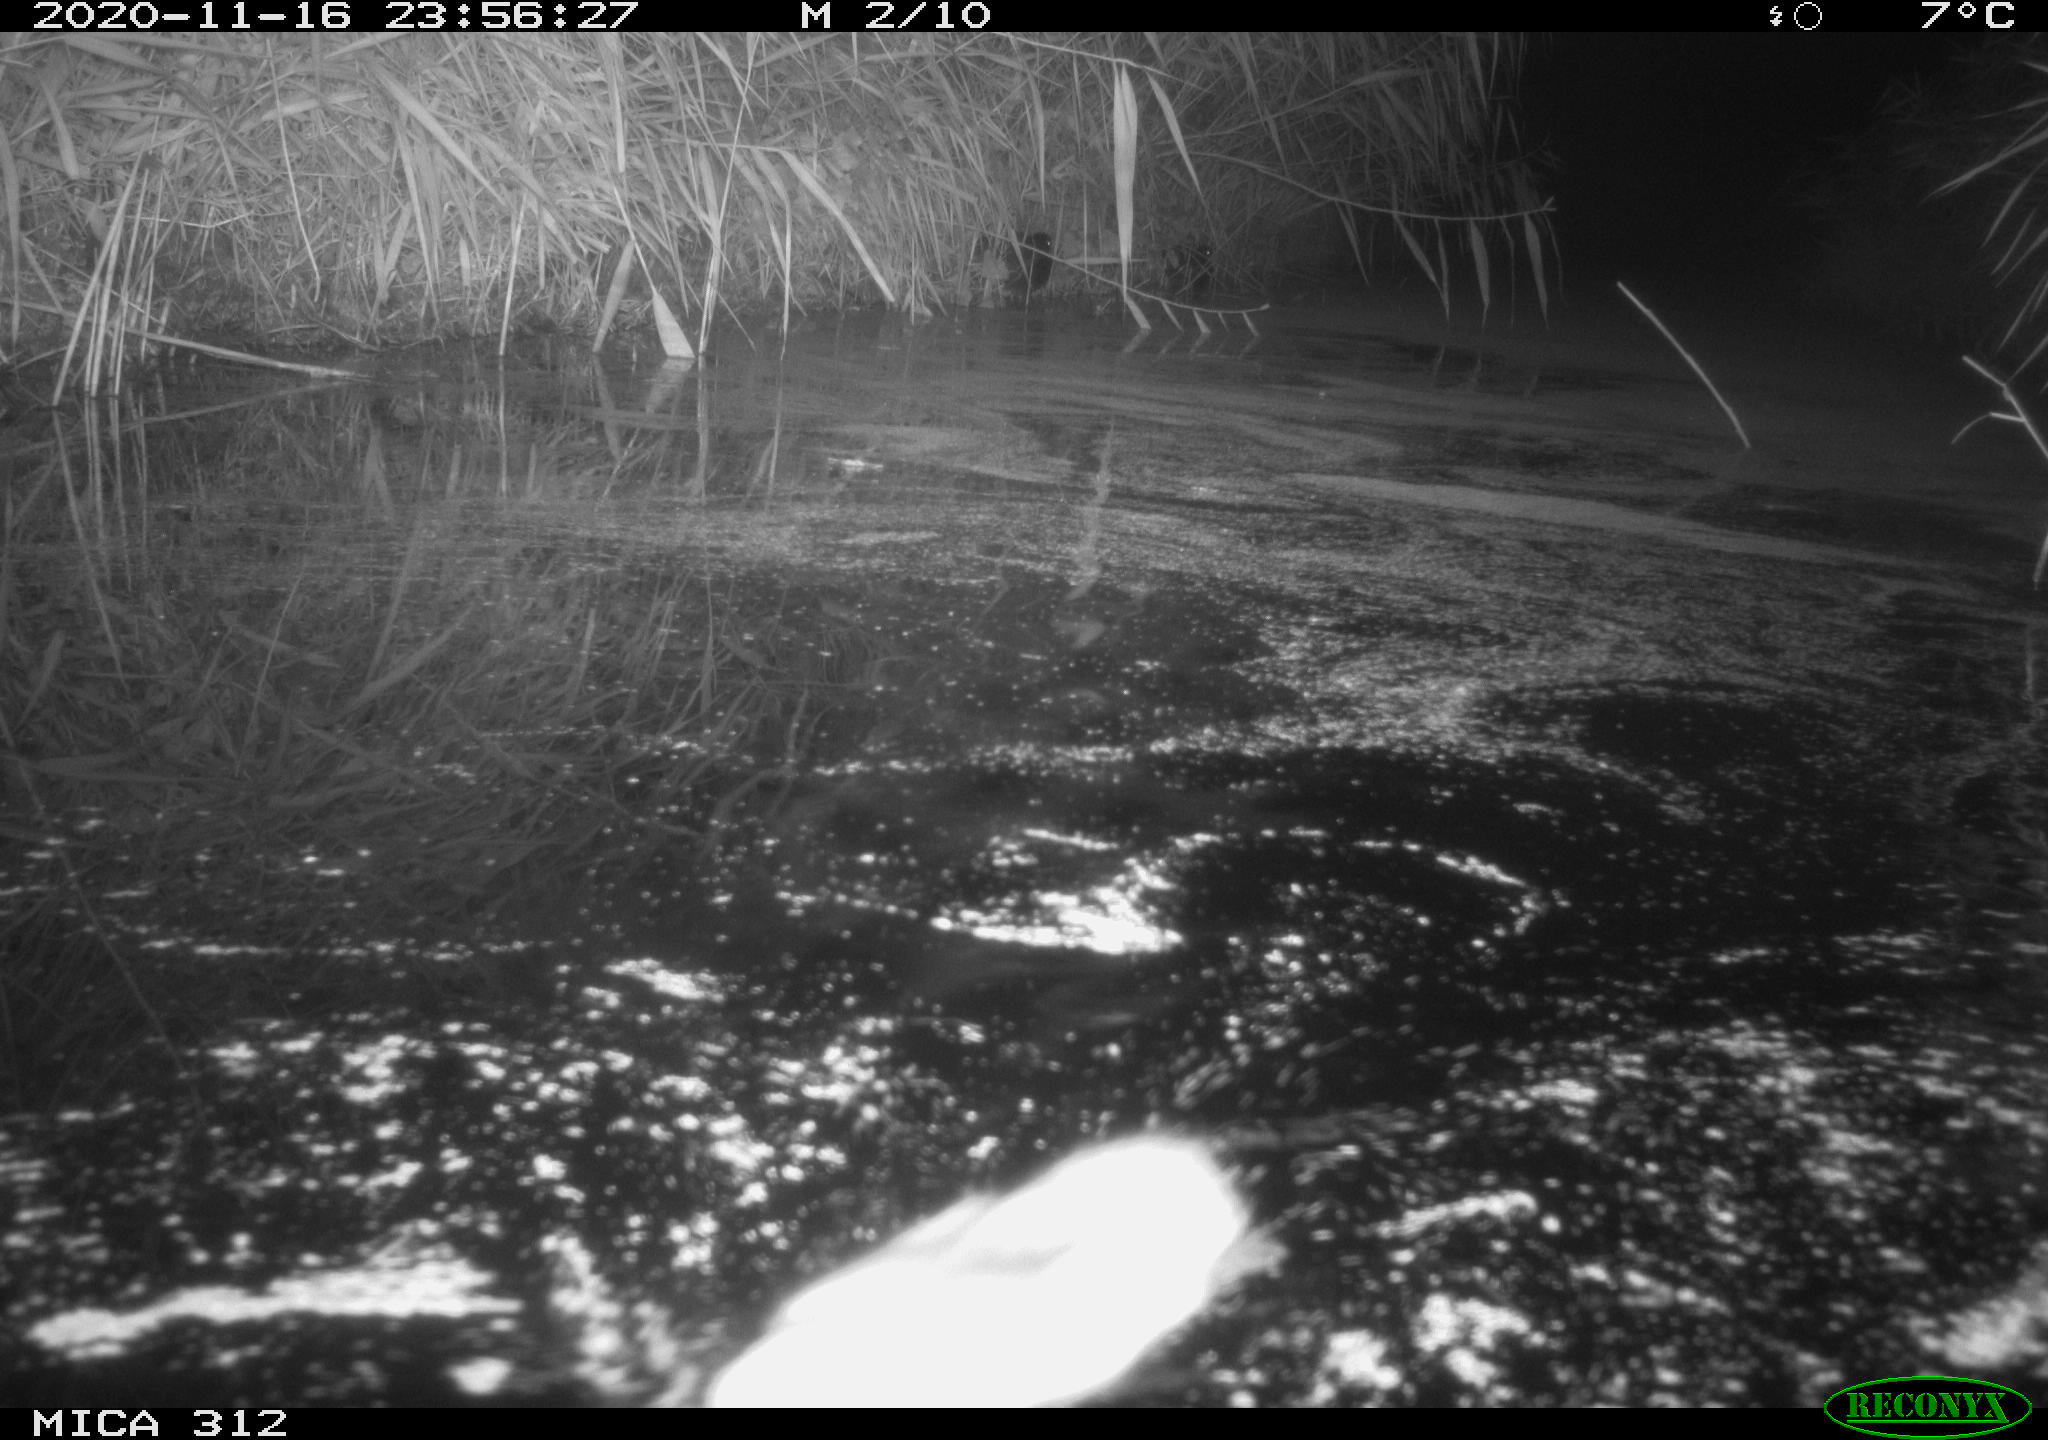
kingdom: Animalia
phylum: Chordata
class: Aves
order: Gruiformes
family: Rallidae
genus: Fulica
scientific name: Fulica atra
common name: Eurasian coot
